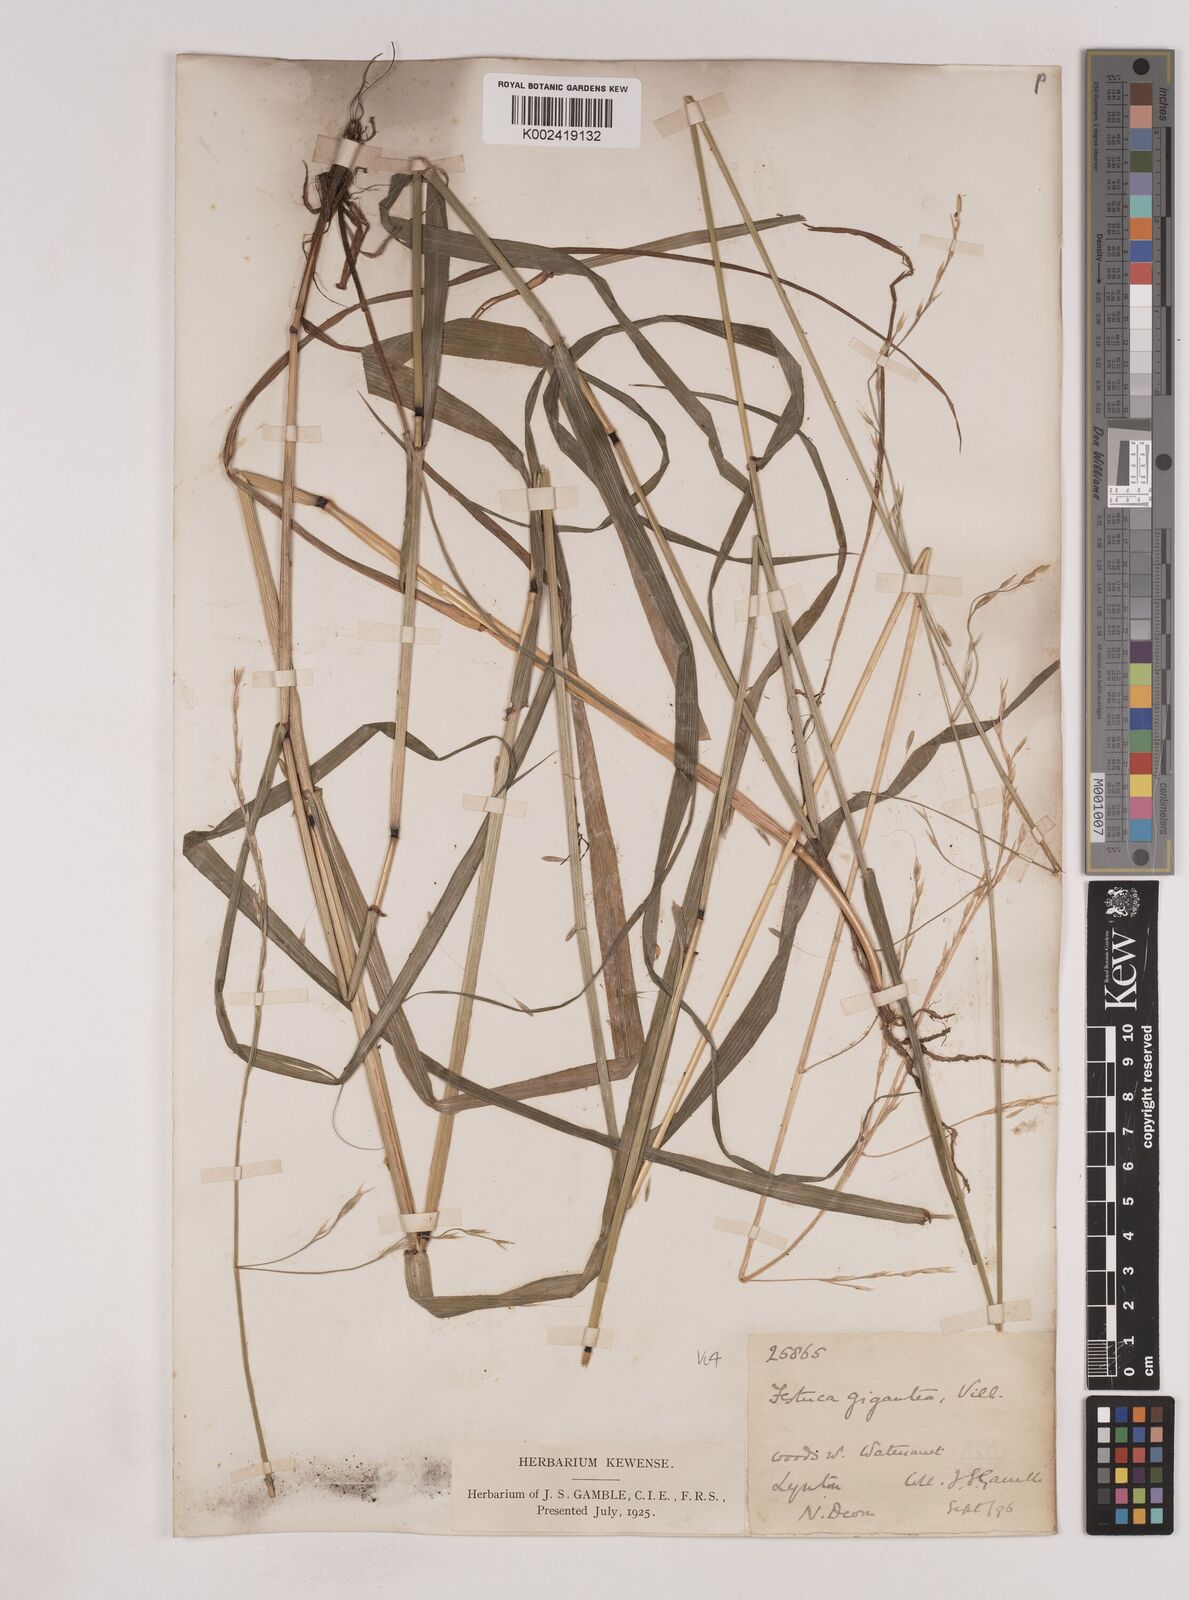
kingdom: Plantae
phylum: Tracheophyta
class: Liliopsida
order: Poales
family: Poaceae
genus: Lolium
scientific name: Lolium giganteum
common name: Giant fescue
